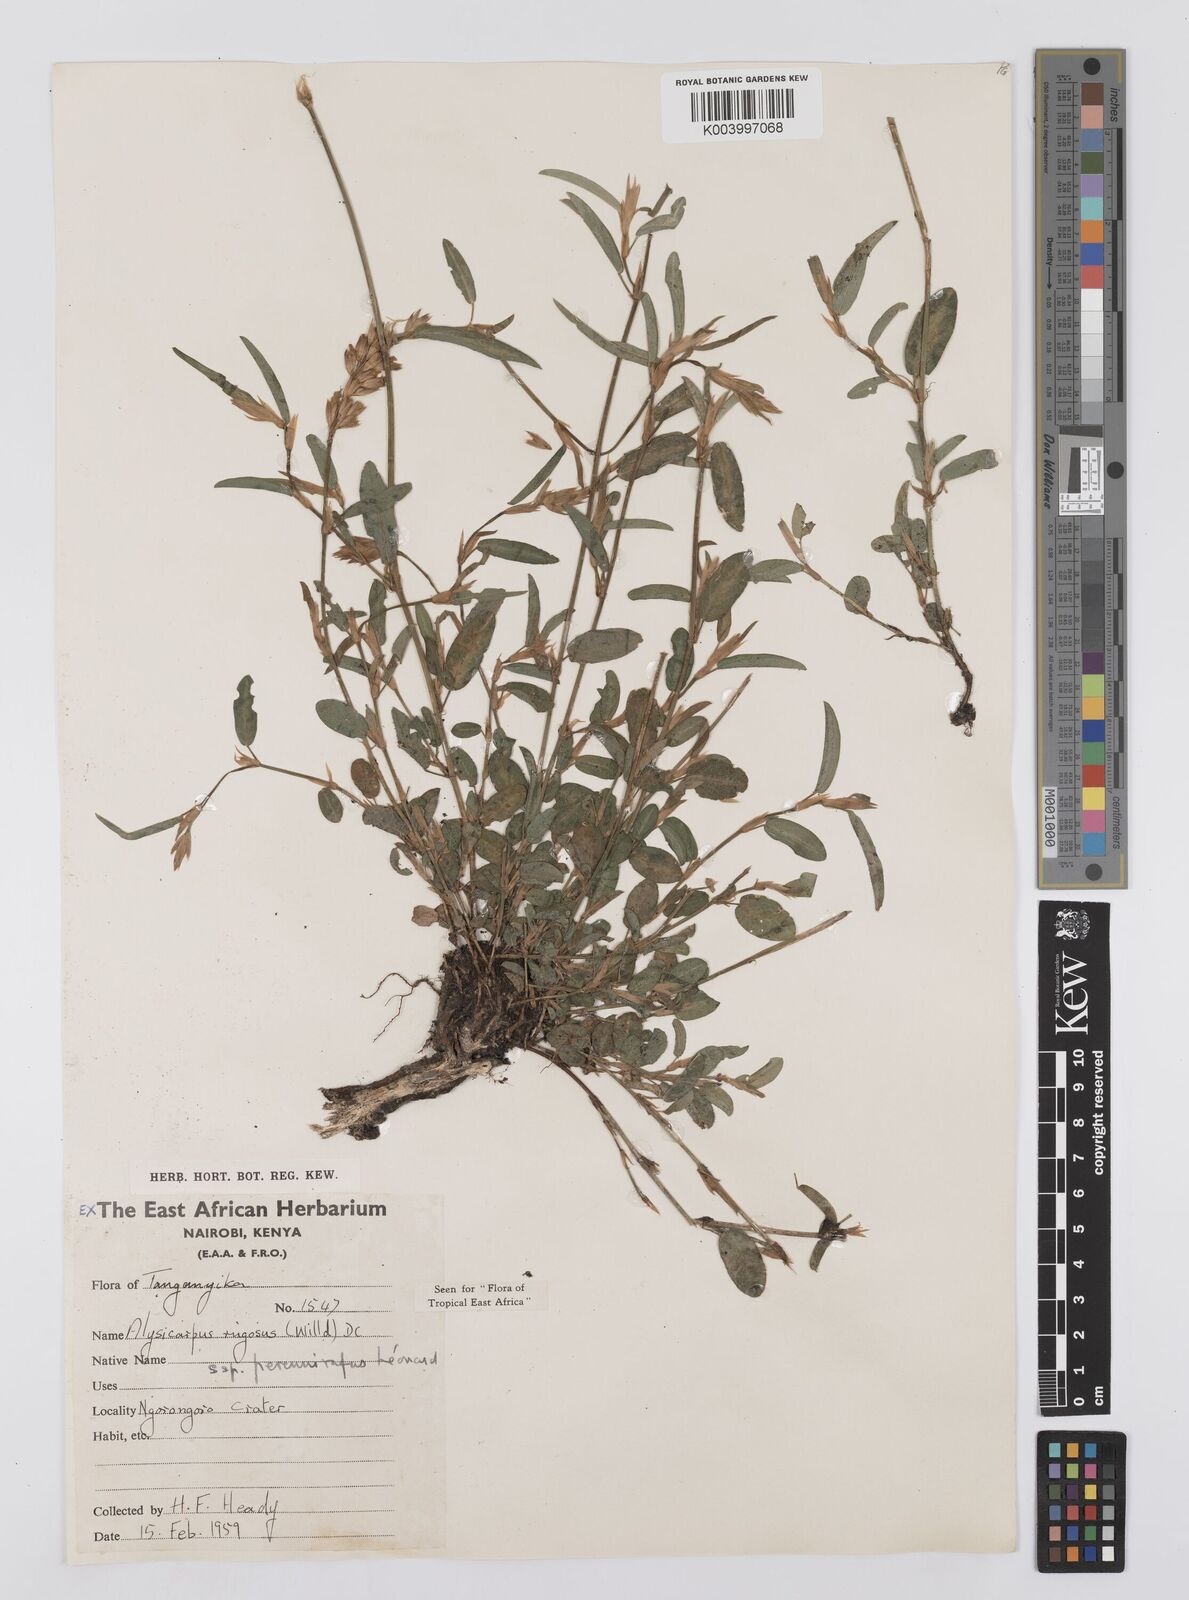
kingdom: Plantae
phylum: Tracheophyta
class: Magnoliopsida
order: Fabales
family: Fabaceae
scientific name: Fabaceae
